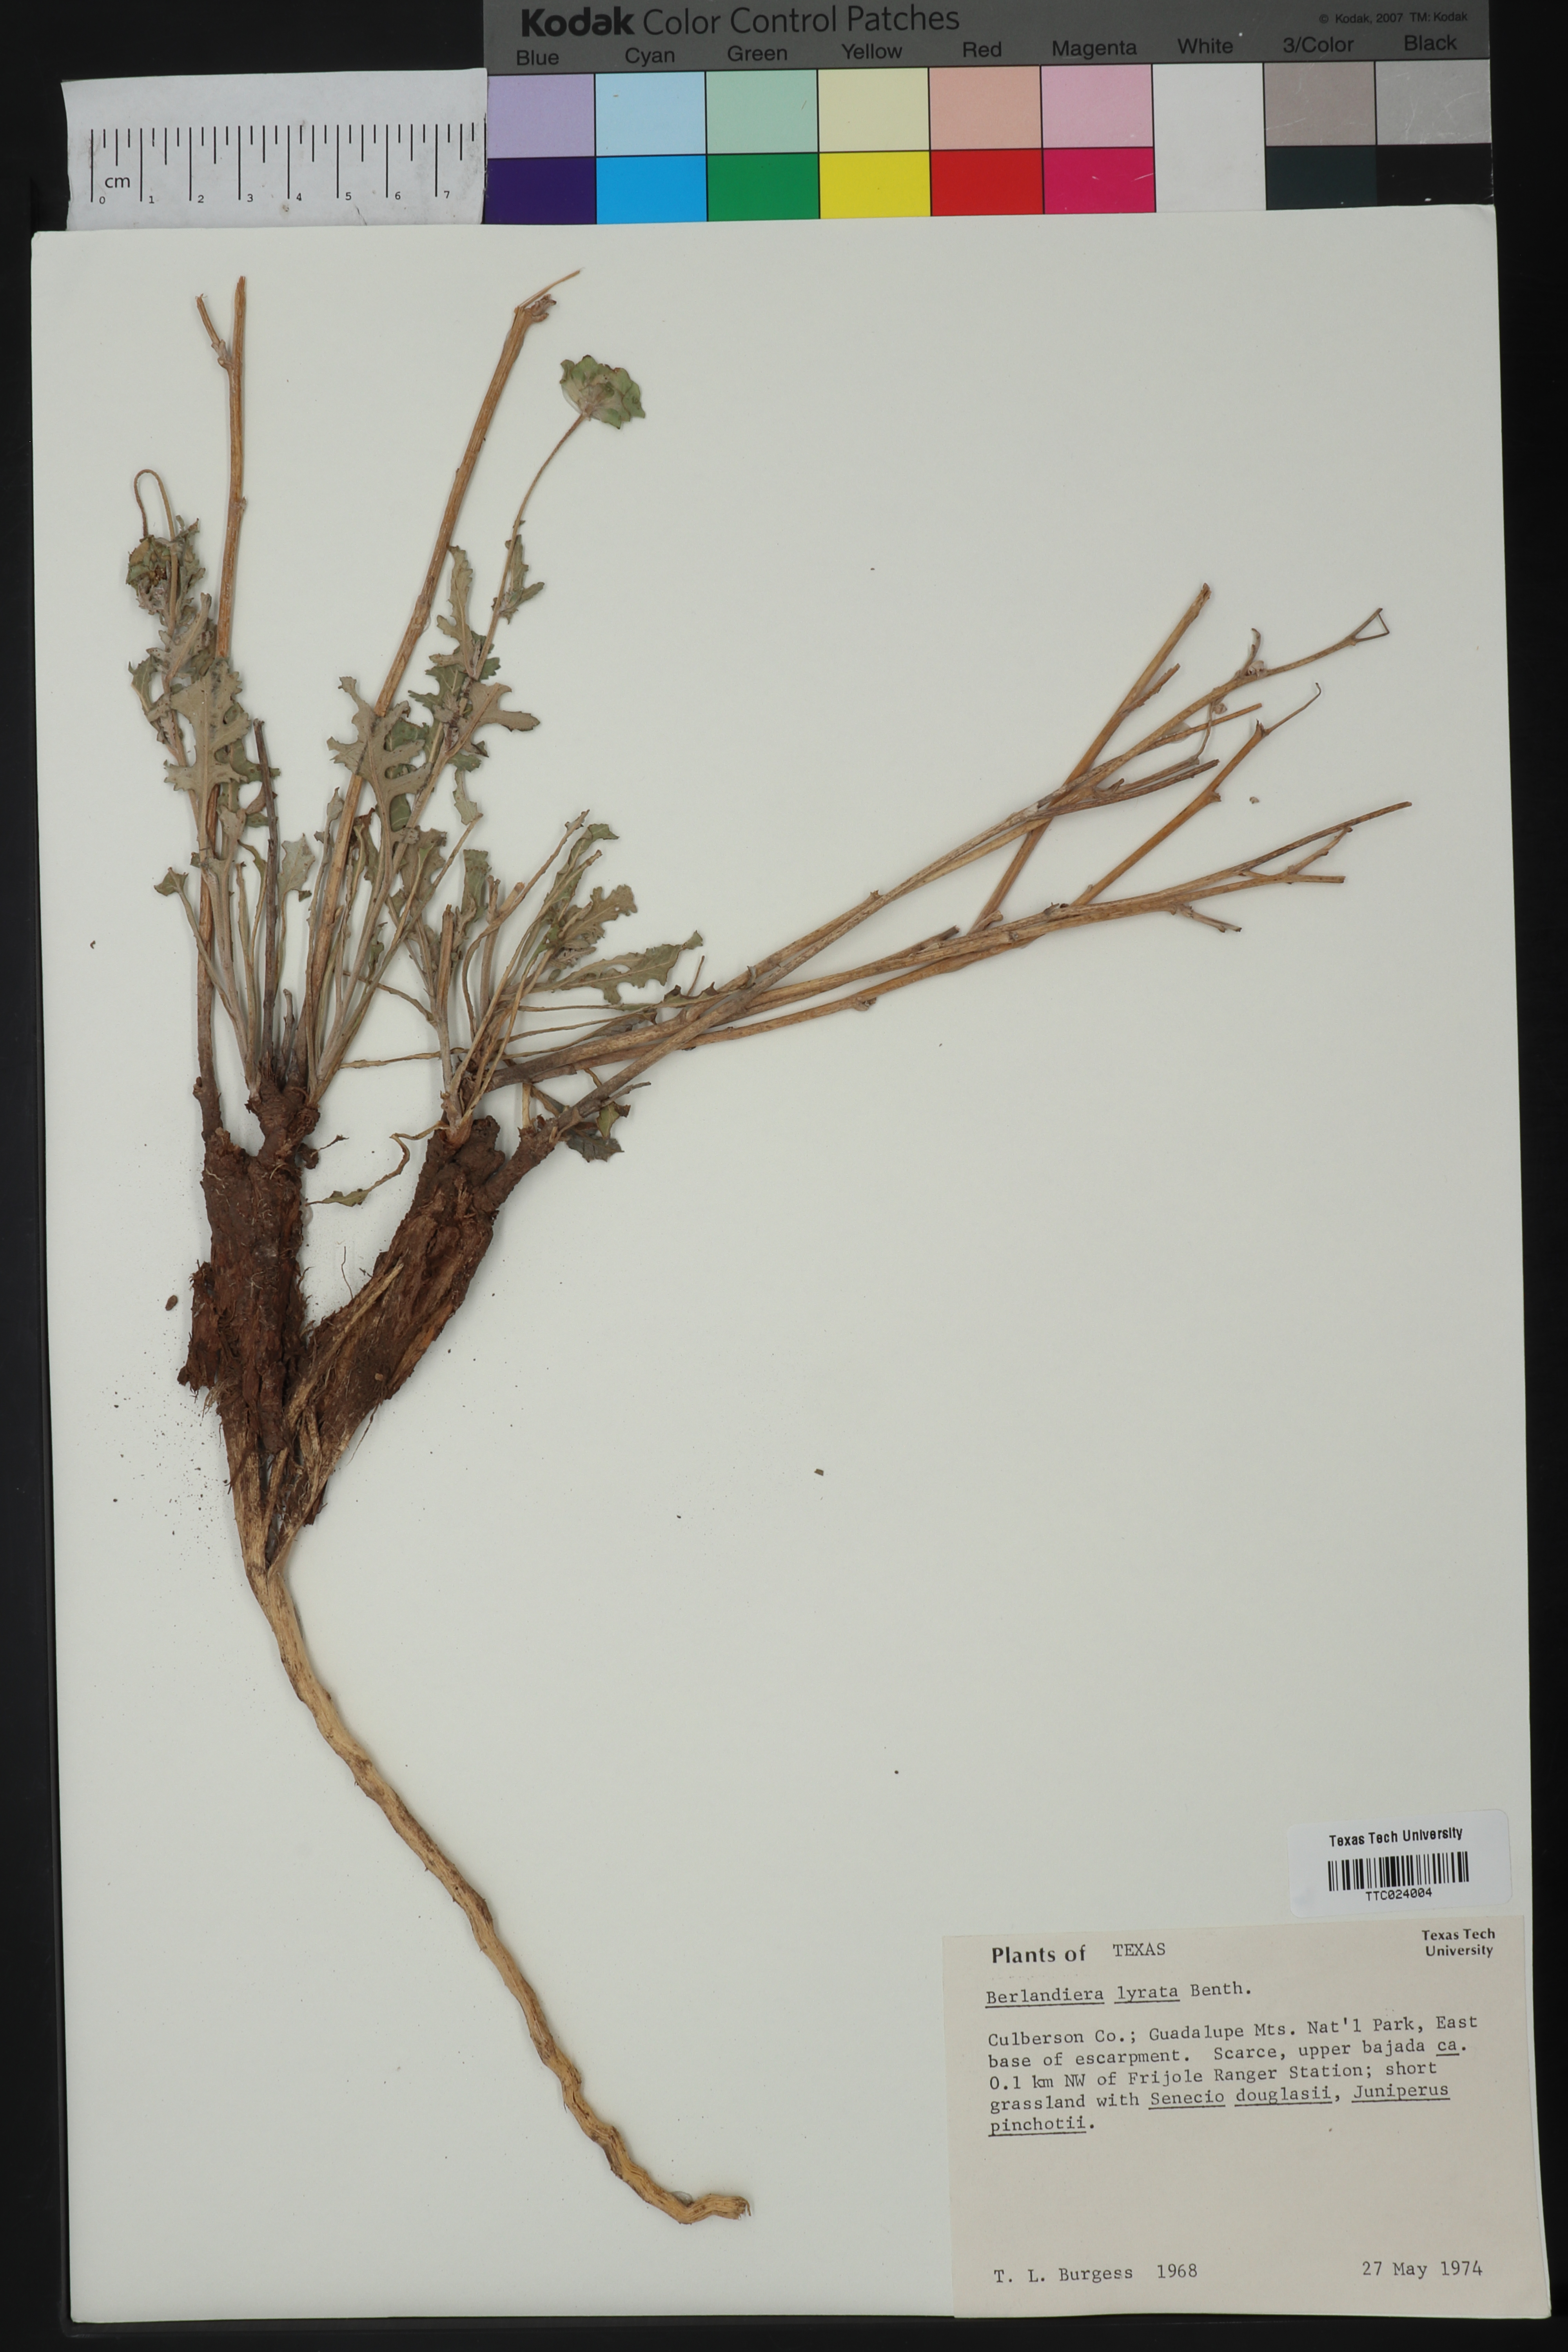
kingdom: Plantae
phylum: Tracheophyta
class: Magnoliopsida
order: Asterales
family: Asteraceae
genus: Berlandiera
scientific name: Berlandiera lyrata
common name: Chocolate-flower
